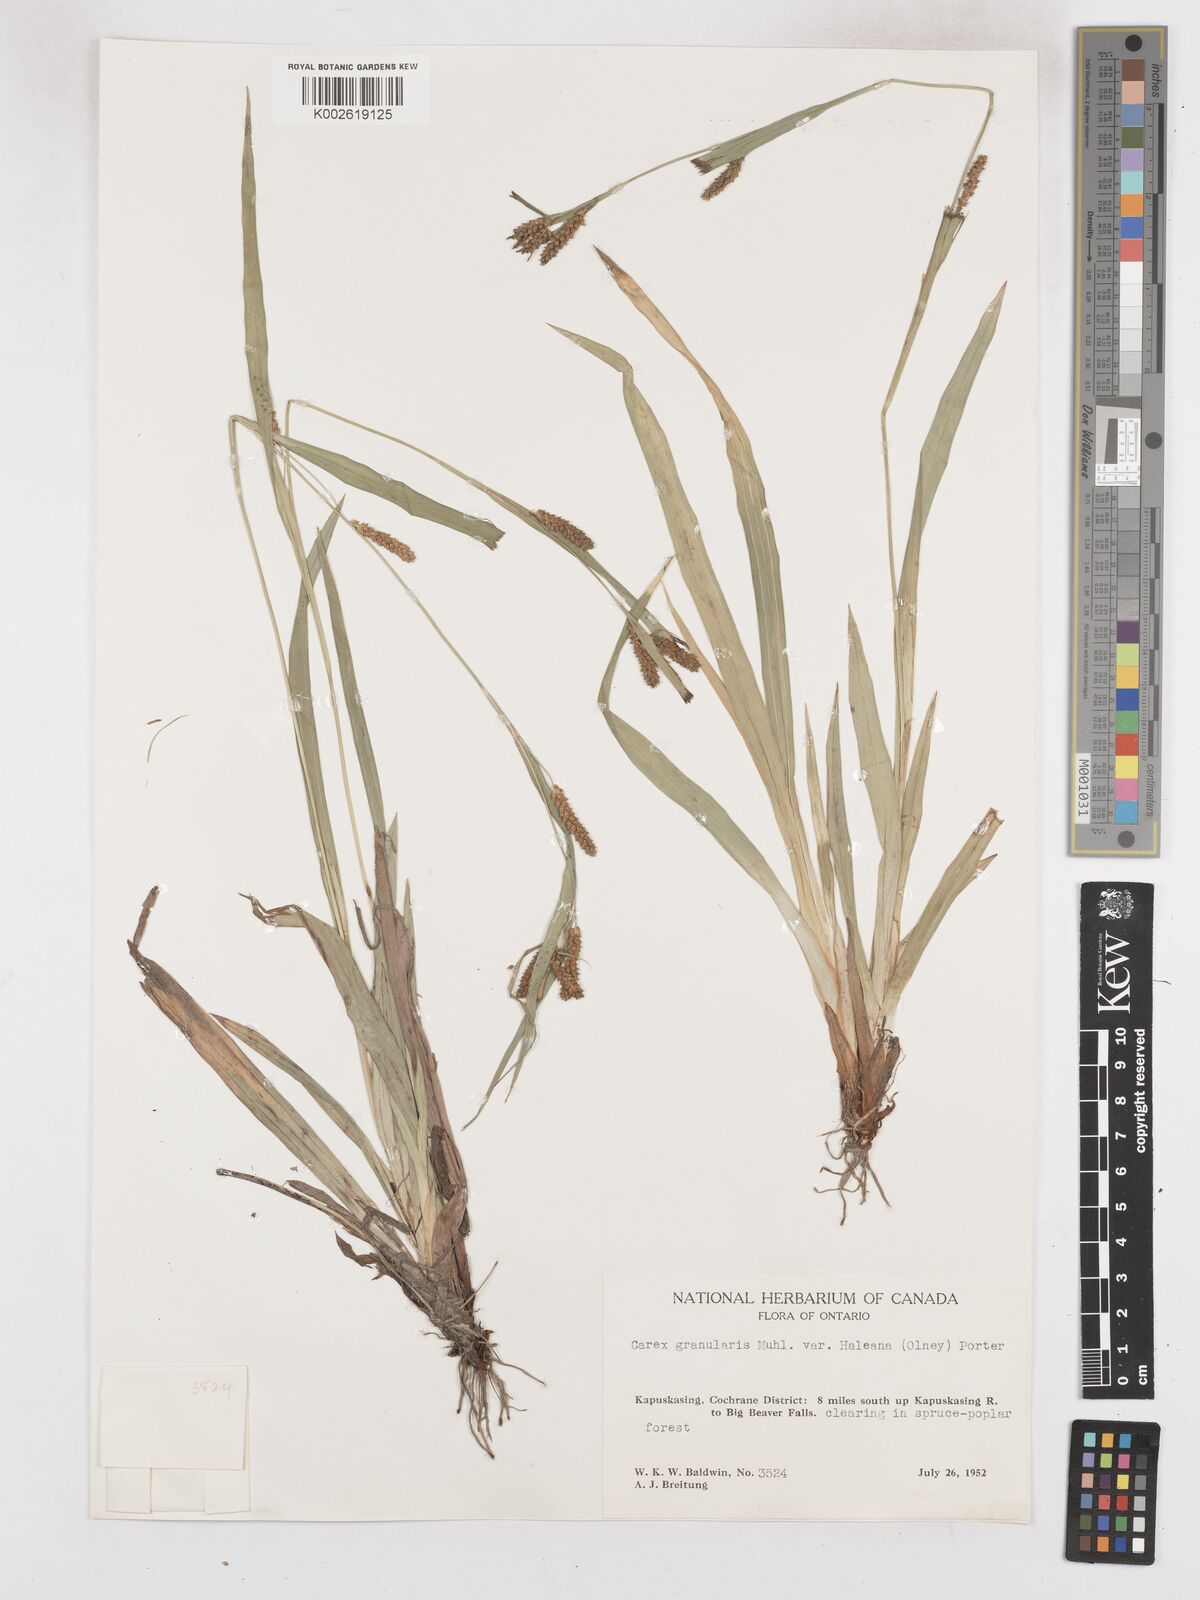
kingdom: Plantae
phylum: Tracheophyta
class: Liliopsida
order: Poales
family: Cyperaceae
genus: Carex
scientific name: Carex granularis
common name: Granular sedge
